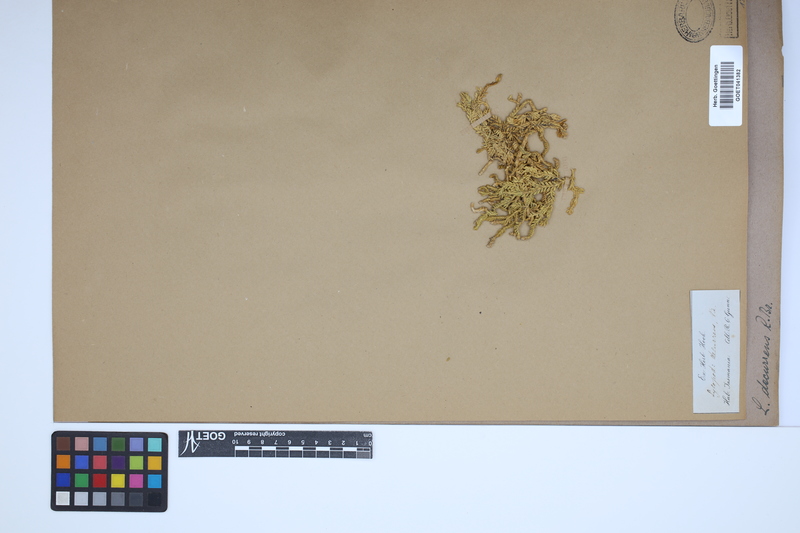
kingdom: Plantae
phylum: Tracheophyta
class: Lycopodiopsida
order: Lycopodiales
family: Lycopodiaceae
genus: Diphasium
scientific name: Diphasium scariosum
